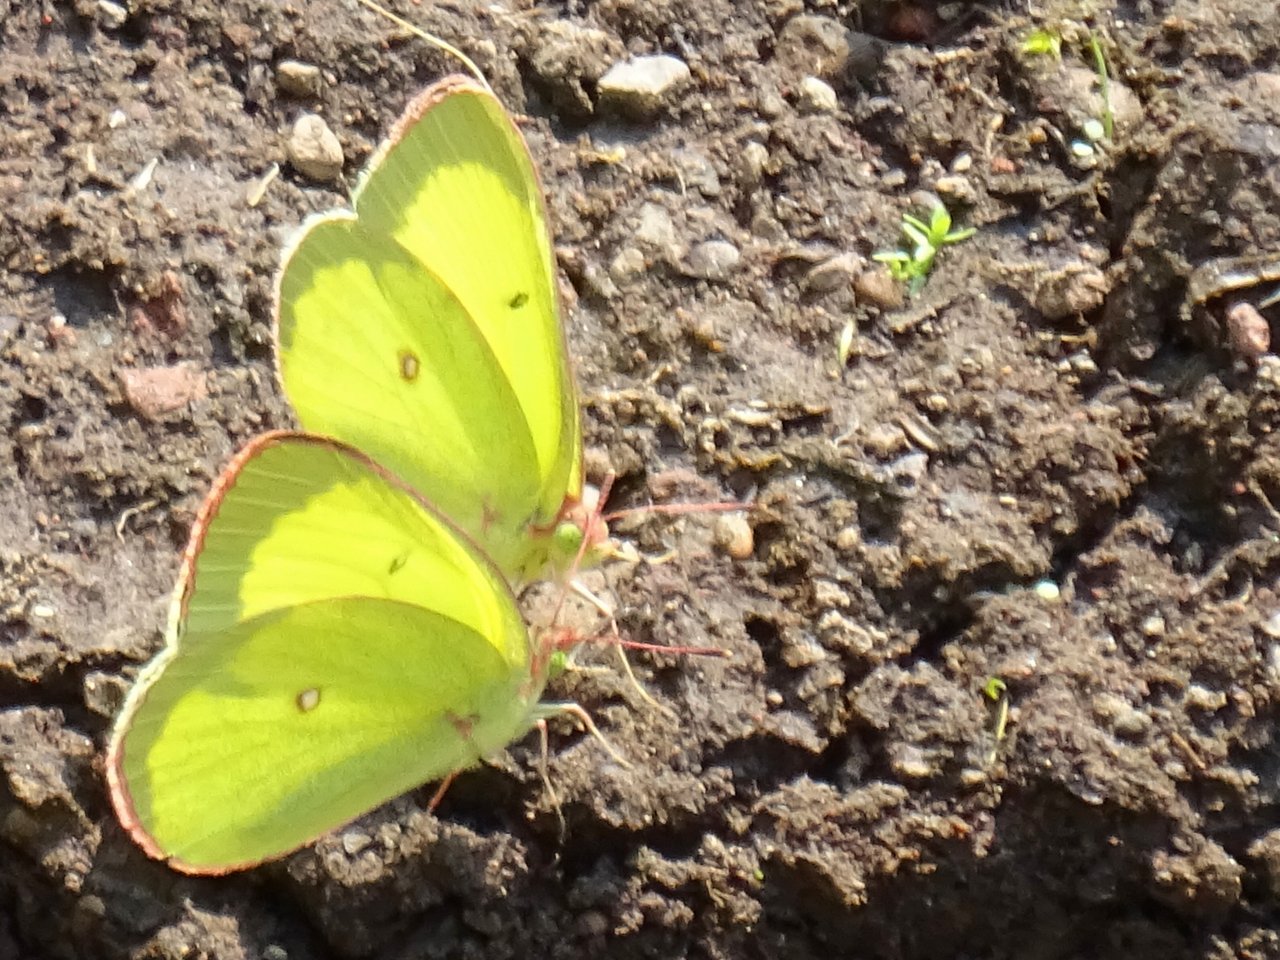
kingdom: Animalia
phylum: Arthropoda
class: Insecta
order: Lepidoptera
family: Pieridae
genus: Colias
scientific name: Colias interior
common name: Pink-edged Sulphur
